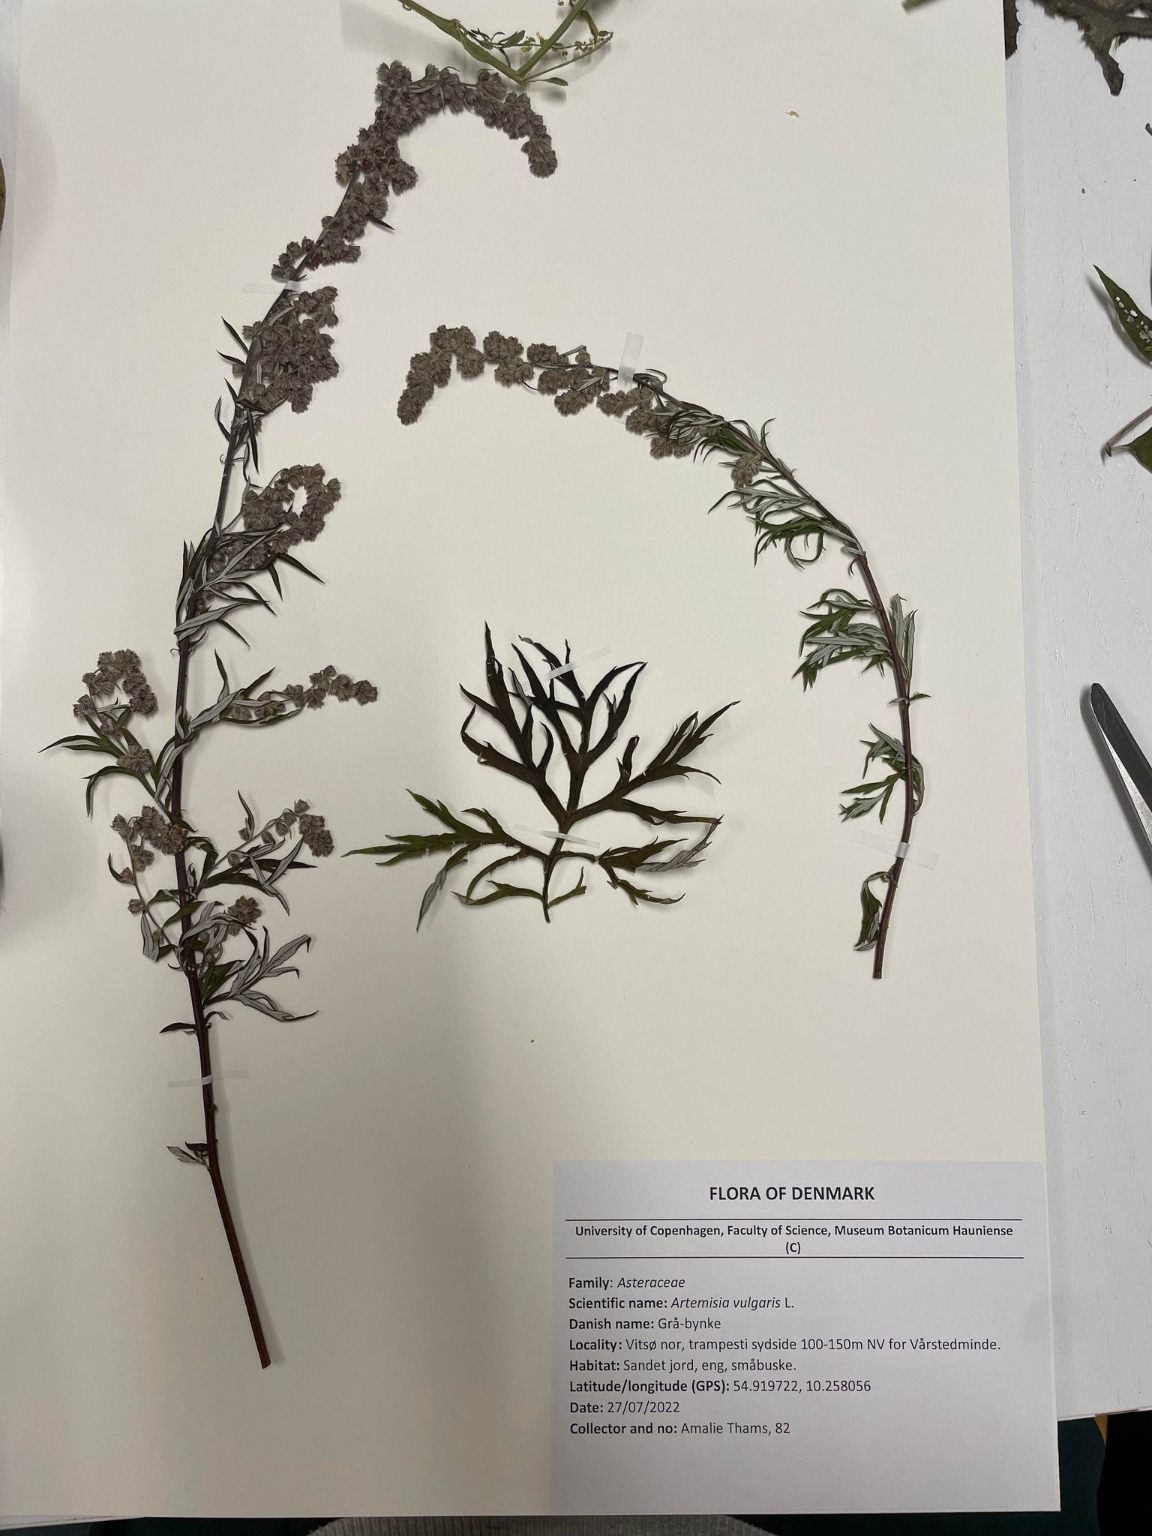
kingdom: Plantae
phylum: Tracheophyta
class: Magnoliopsida
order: Asterales
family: Asteraceae
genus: Artemisia
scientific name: Artemisia vulgaris
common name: Grå-bynke
